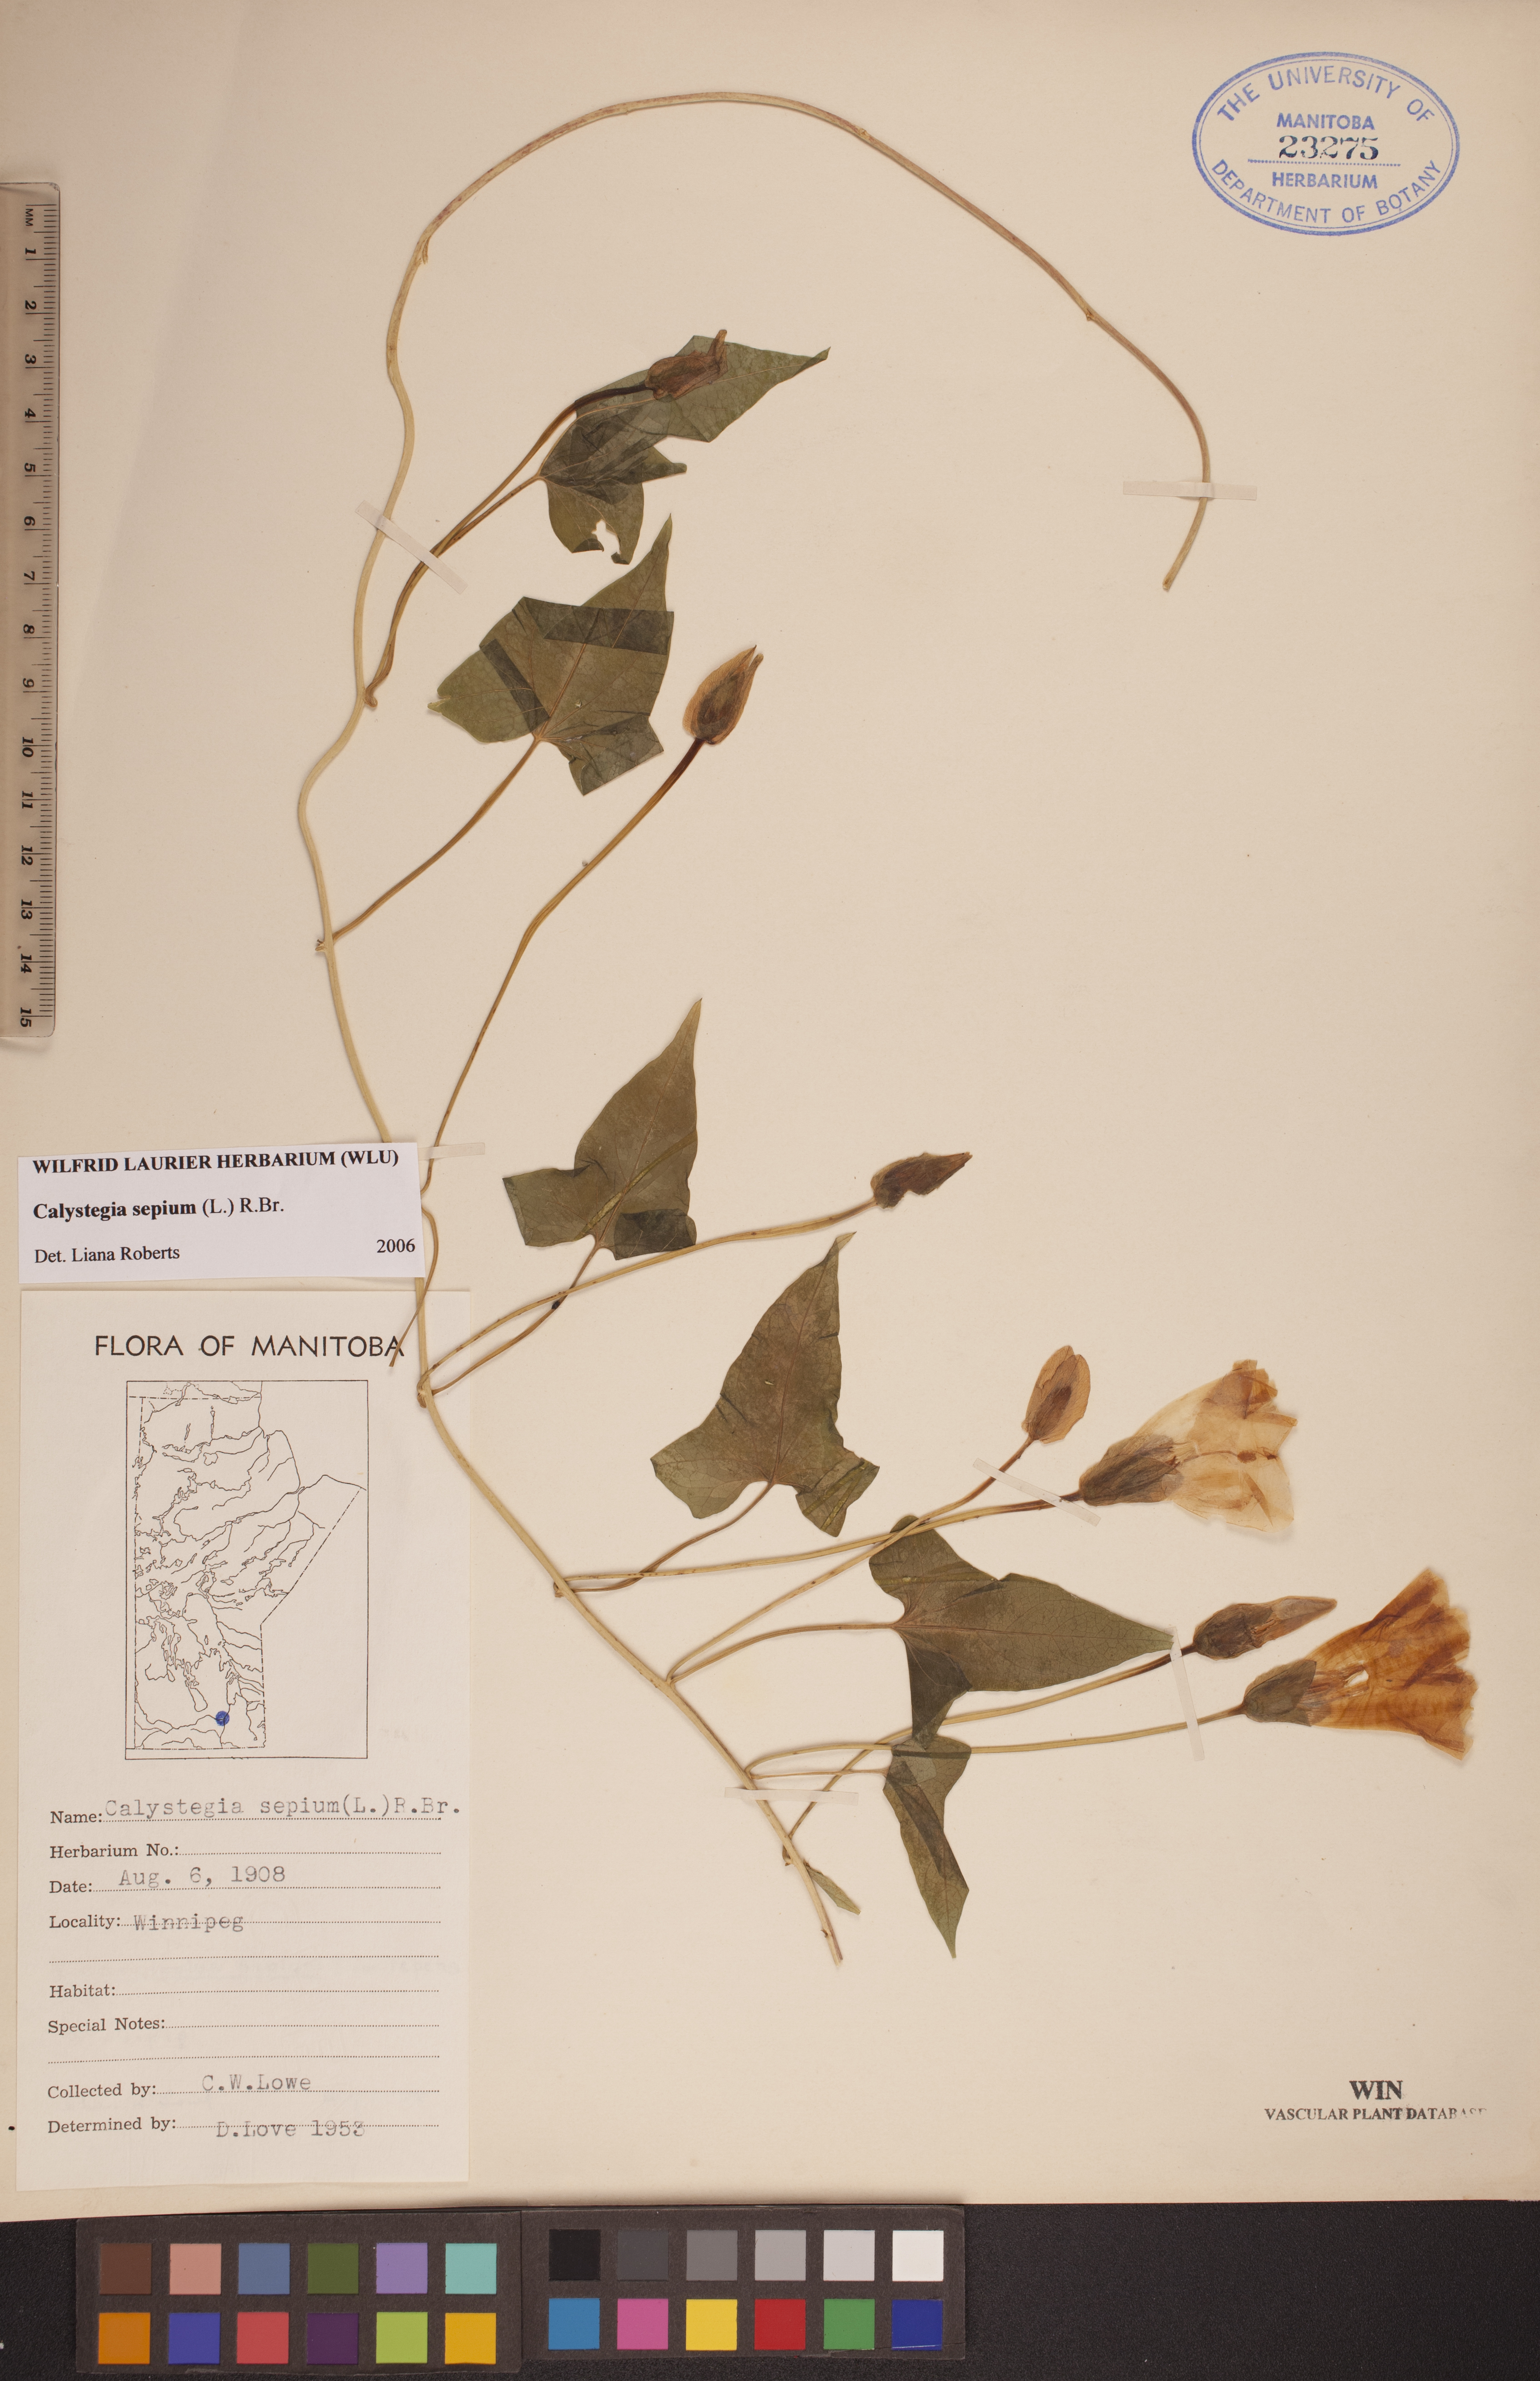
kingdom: Plantae
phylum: Tracheophyta
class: Magnoliopsida
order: Solanales
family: Convolvulaceae
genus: Calystegia
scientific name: Calystegia sepium
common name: Hedge bindweed
